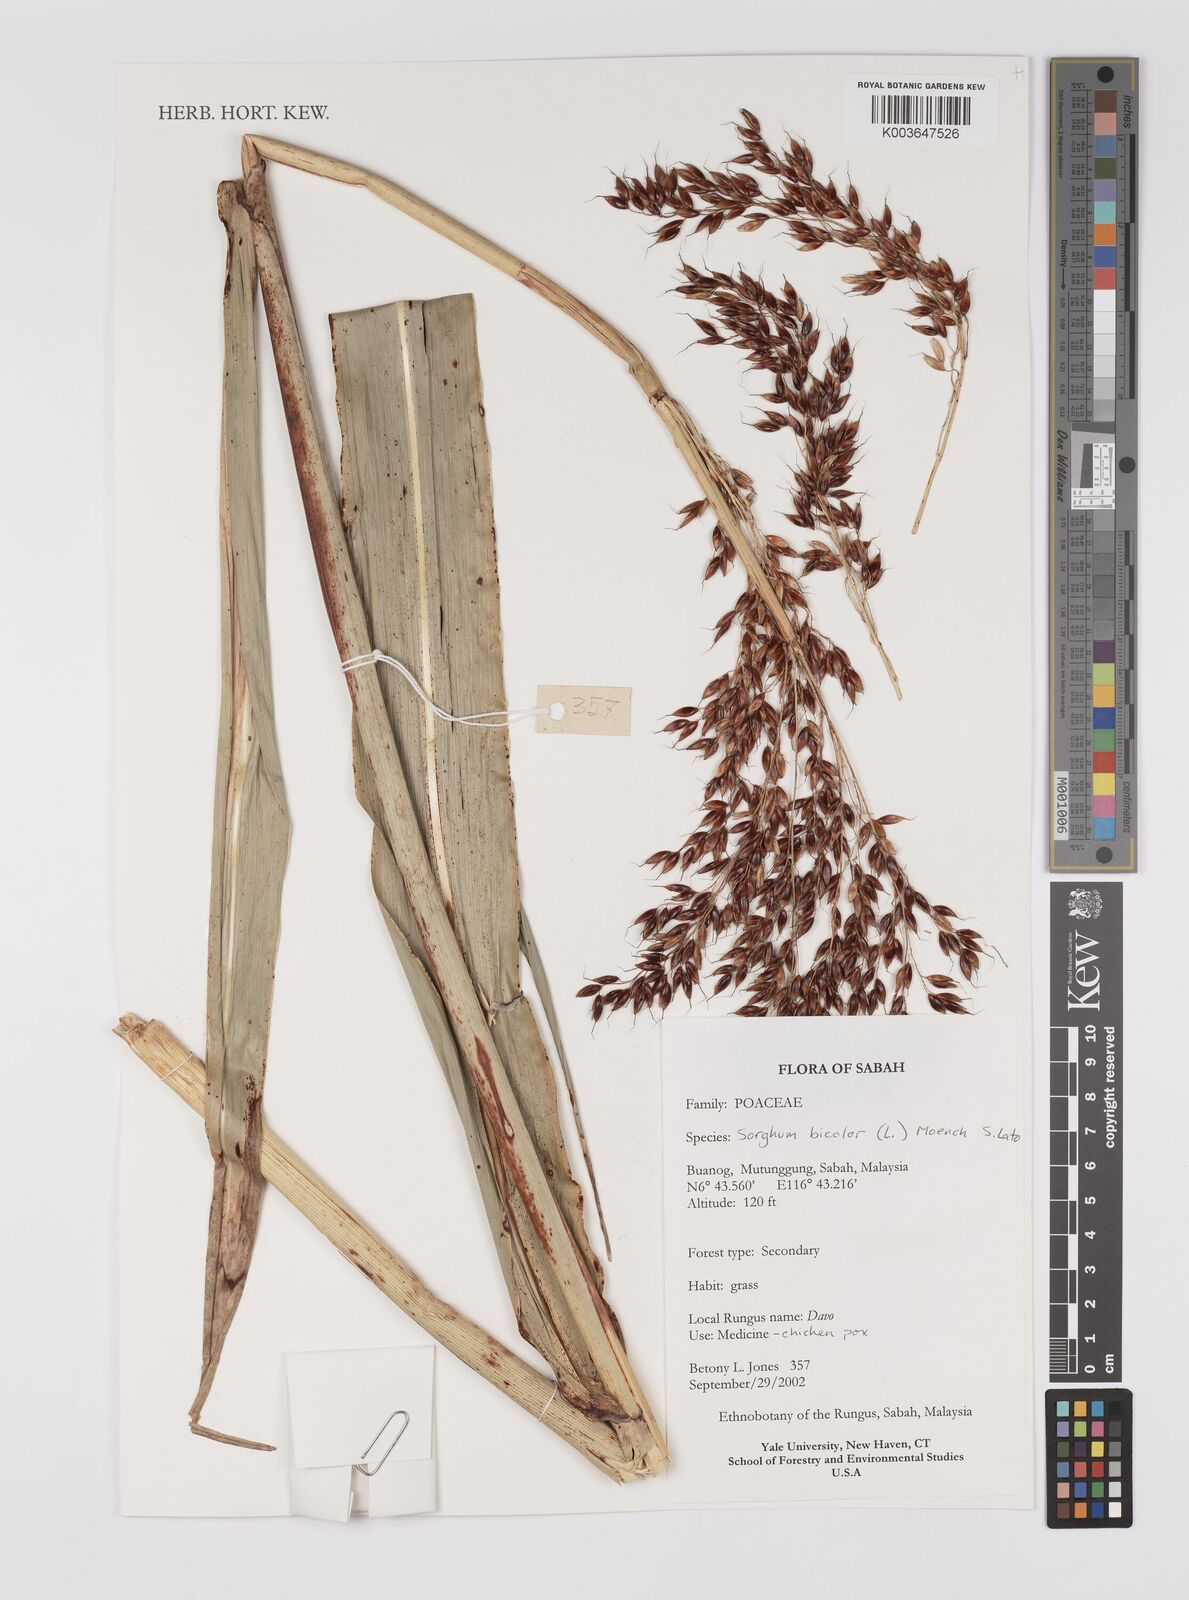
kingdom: Plantae
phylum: Tracheophyta
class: Liliopsida
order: Poales
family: Poaceae
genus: Hyparrhenia
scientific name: Hyparrhenia dichroa
